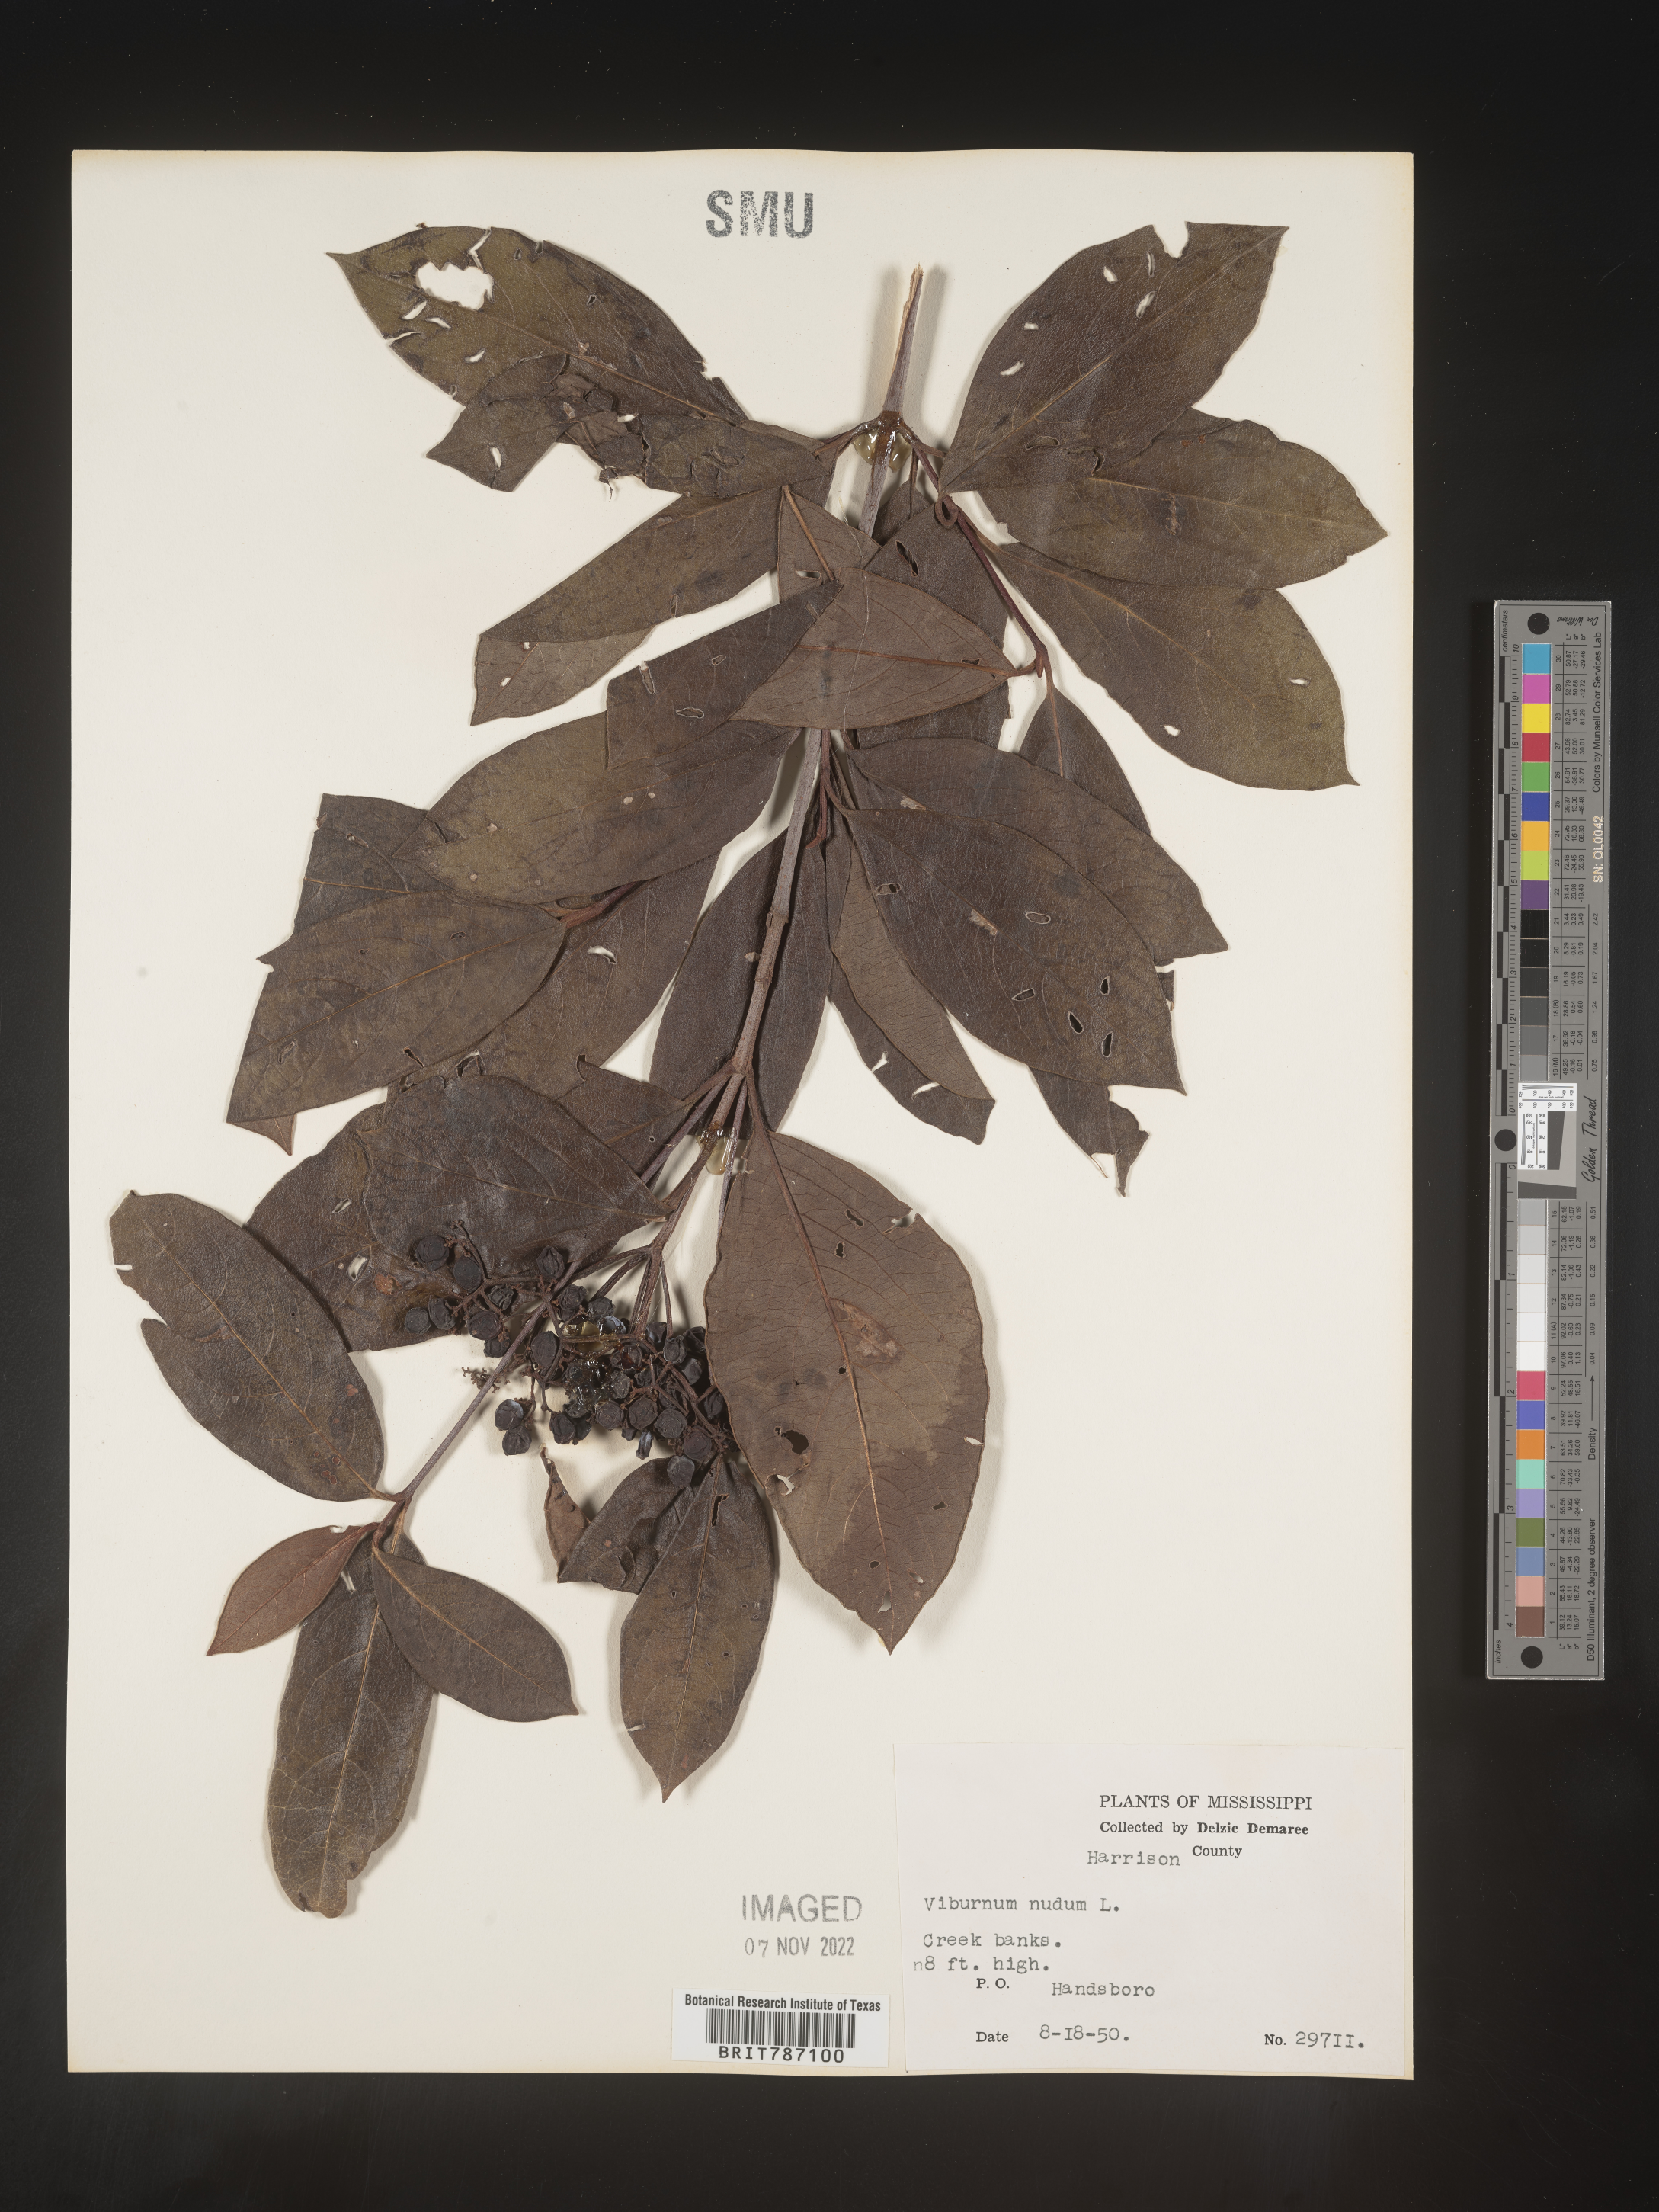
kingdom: Plantae
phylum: Tracheophyta
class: Magnoliopsida
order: Dipsacales
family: Viburnaceae
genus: Viburnum
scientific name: Viburnum nudum
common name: Possum haw
